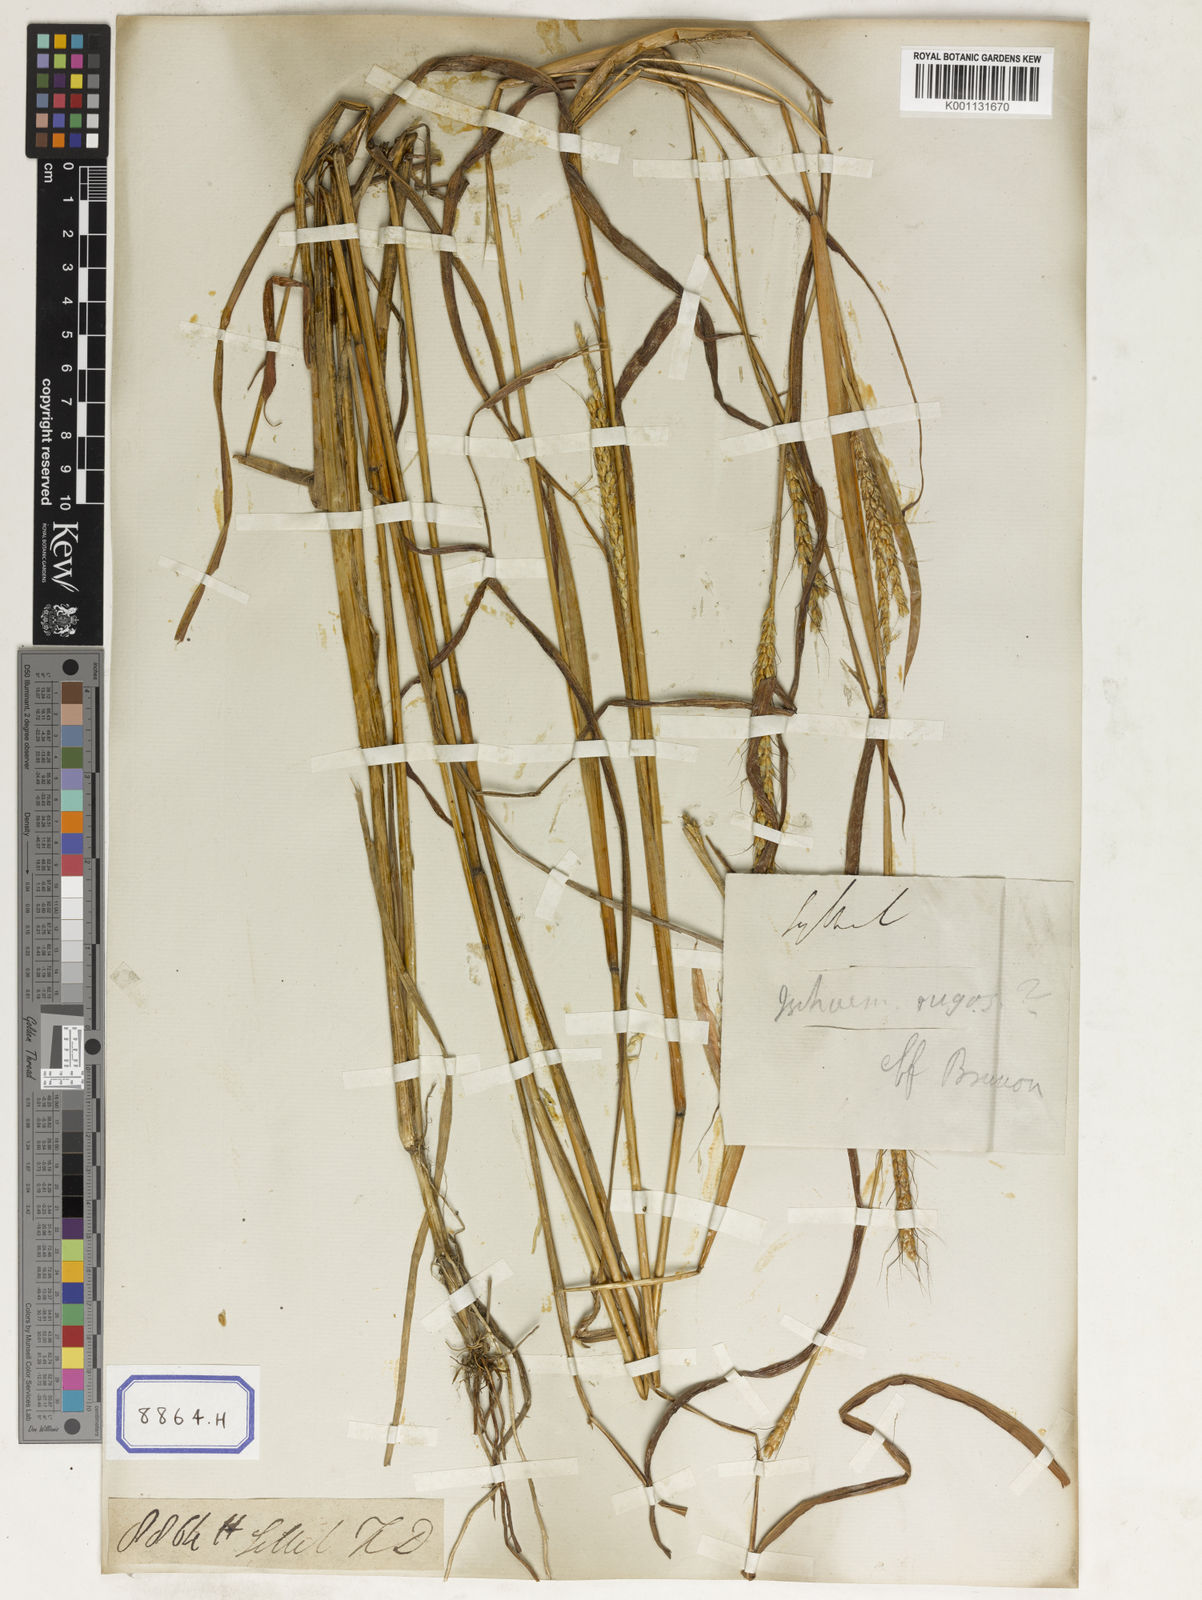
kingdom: Plantae
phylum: Tracheophyta
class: Liliopsida
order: Poales
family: Poaceae
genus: Ischaemum
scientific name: Ischaemum rugosum
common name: Saramatta grass
